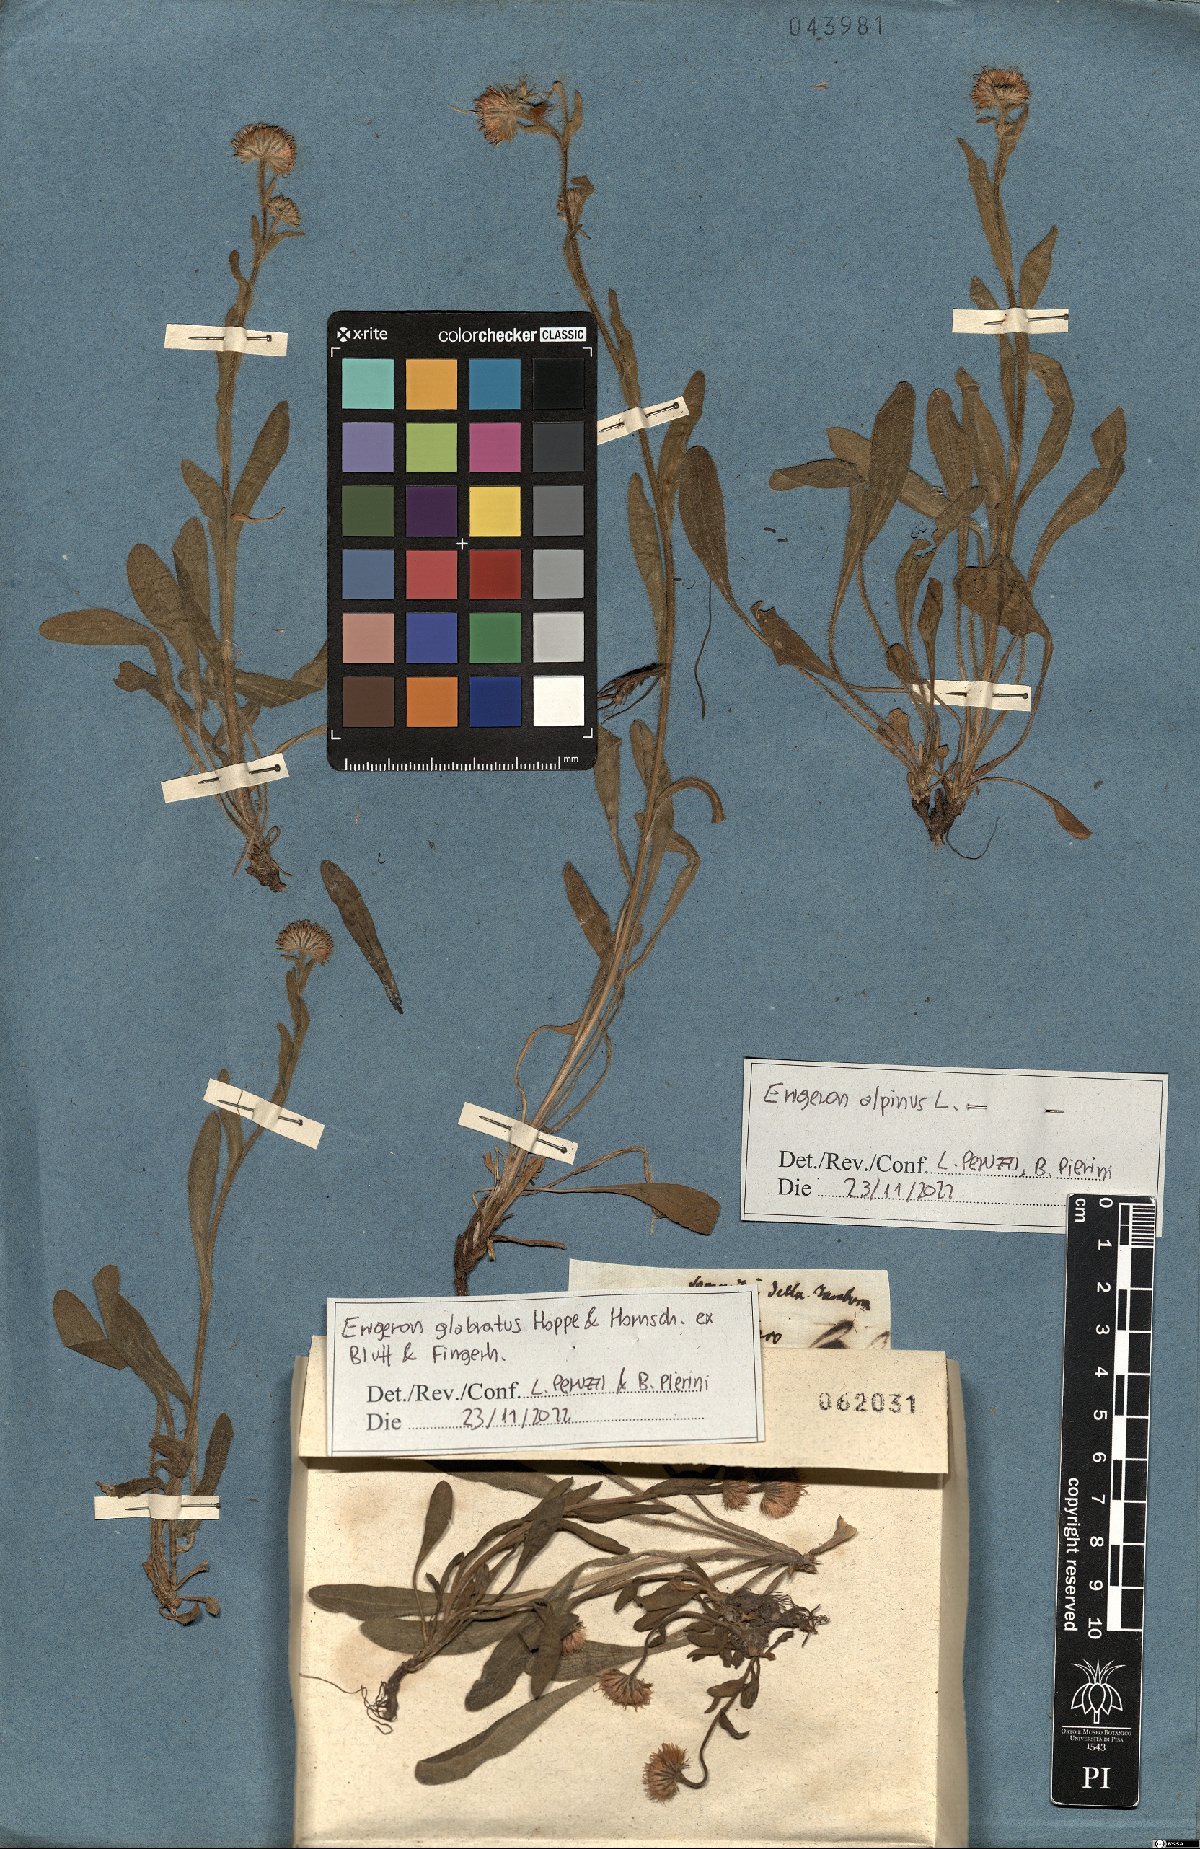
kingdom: Plantae
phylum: Tracheophyta
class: Magnoliopsida
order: Asterales
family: Asteraceae
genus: Erigeron
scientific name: Erigeron glabratus
